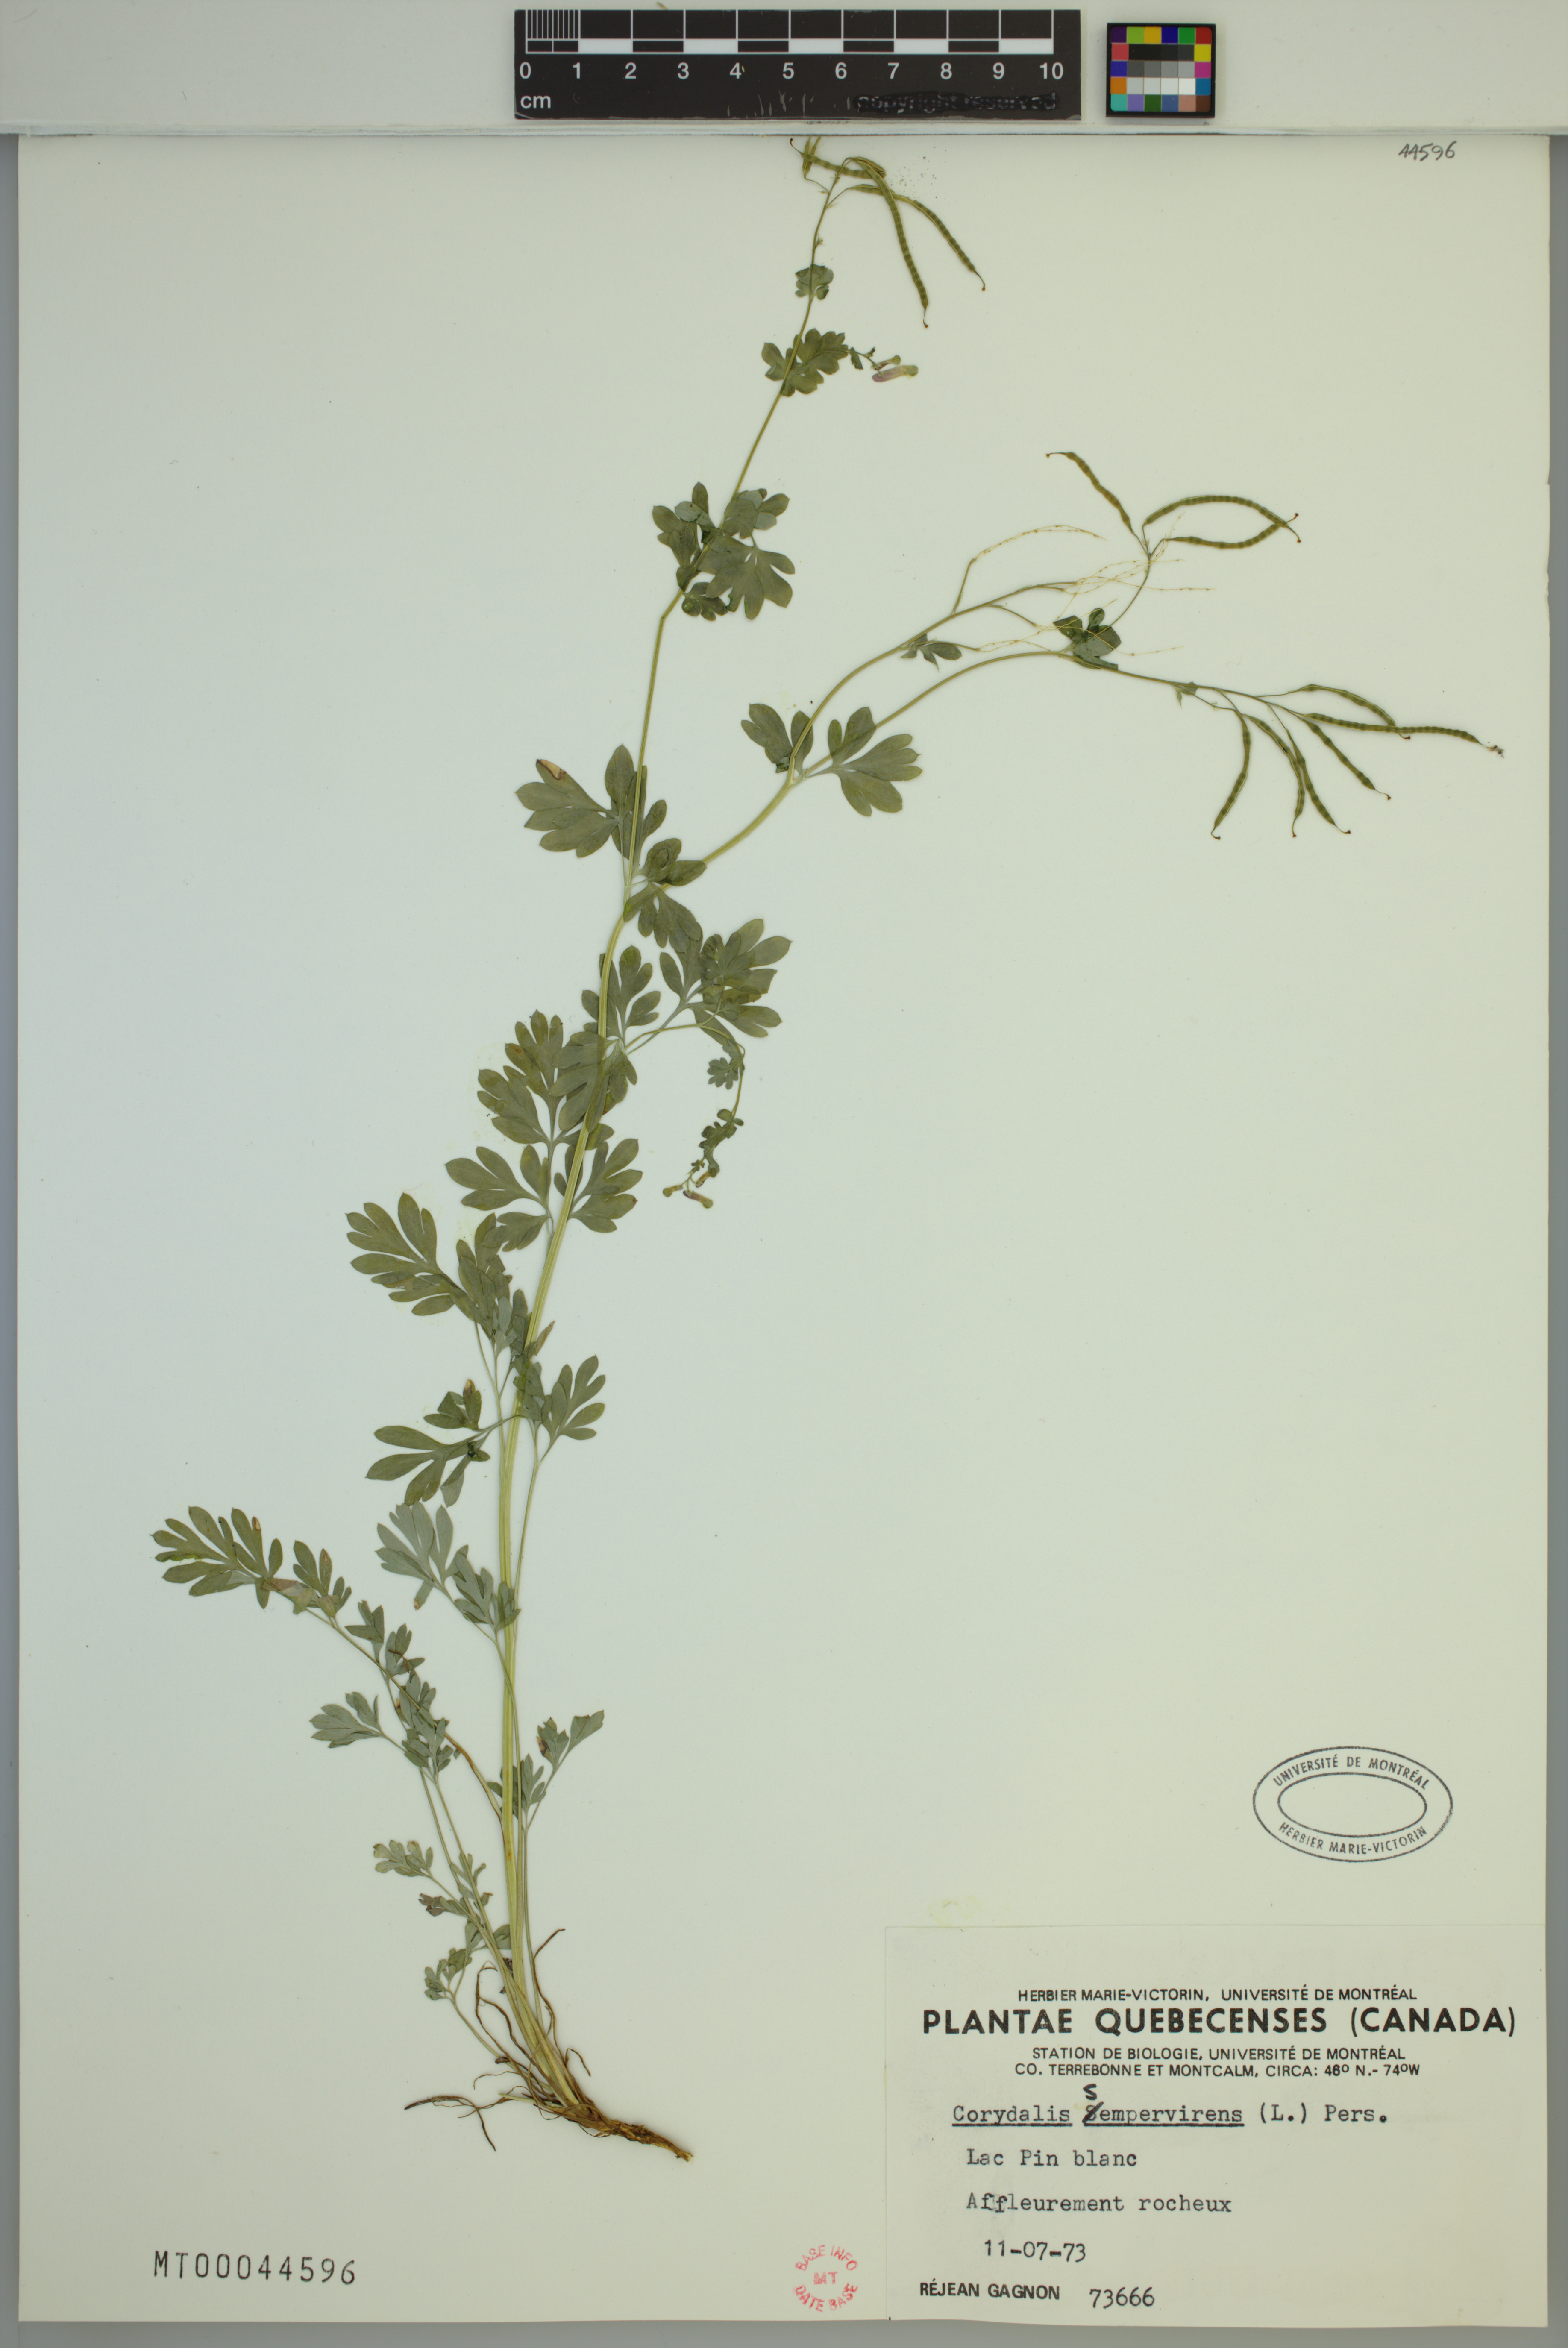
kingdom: Plantae
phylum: Tracheophyta
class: Magnoliopsida
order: Ranunculales
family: Papaveraceae
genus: Capnoides
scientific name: Capnoides sempervirens
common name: Rock harlequin
